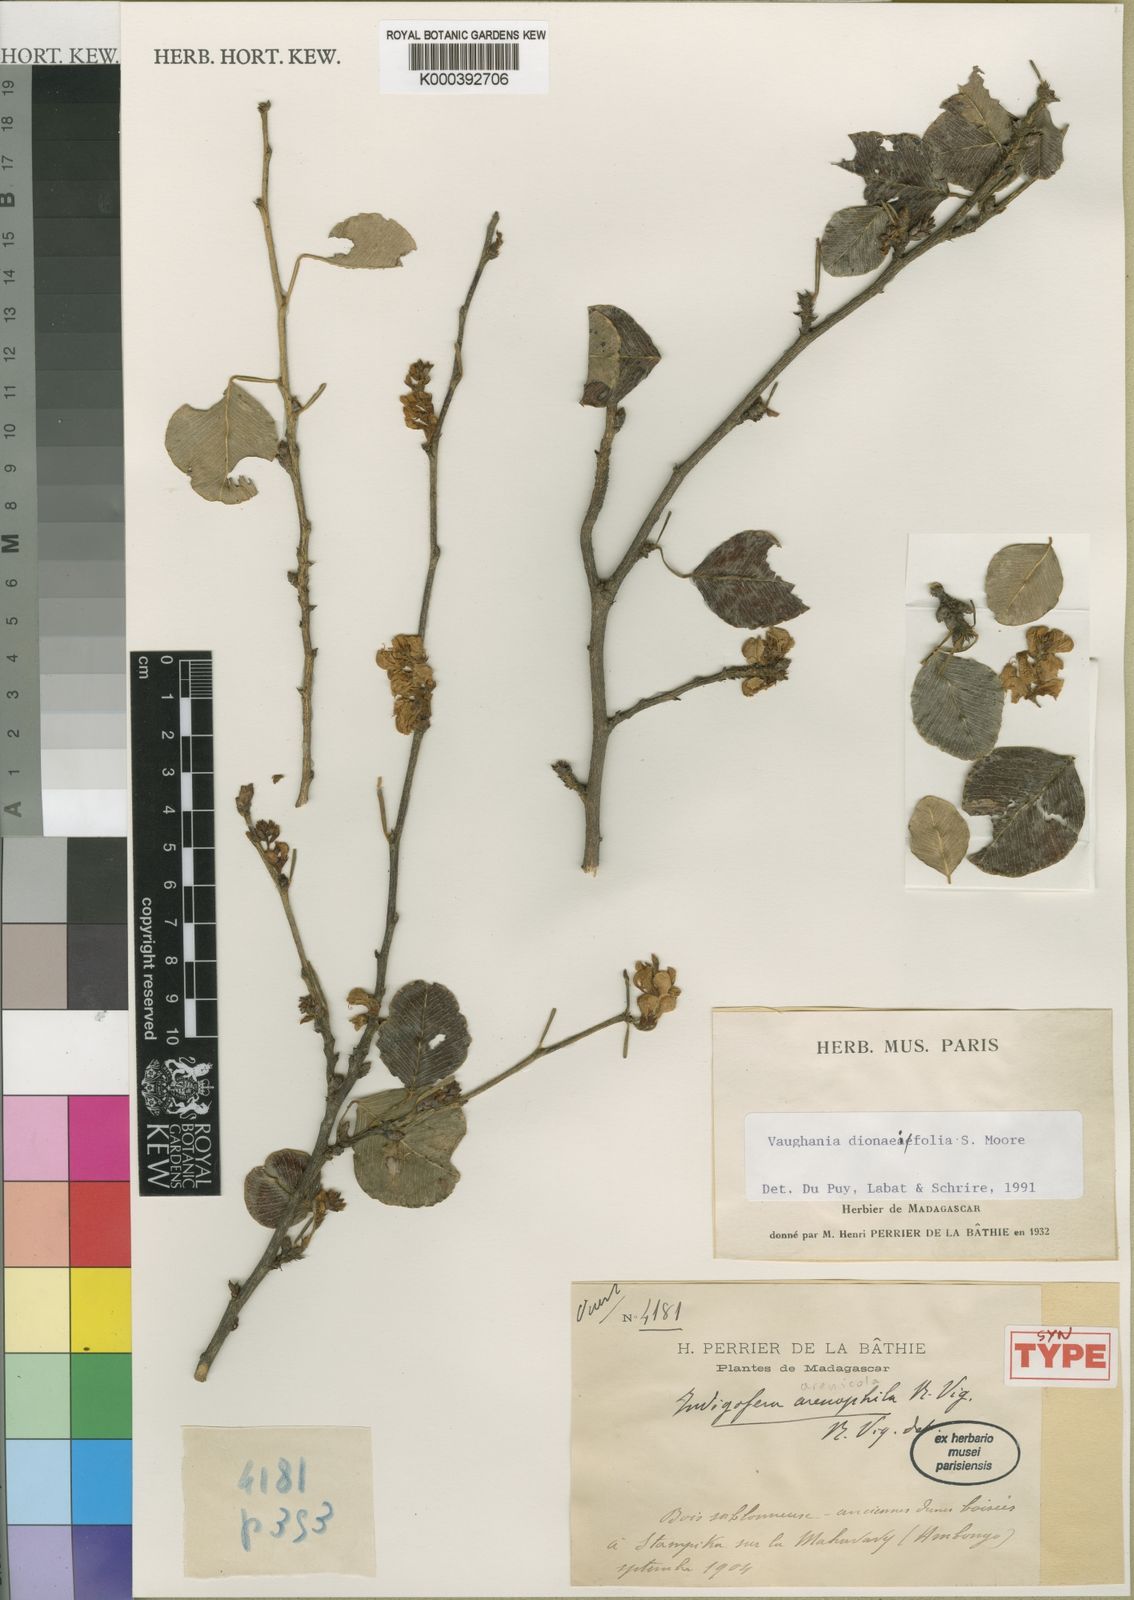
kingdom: Plantae
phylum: Tracheophyta
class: Magnoliopsida
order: Fabales
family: Fabaceae
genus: Indigofera
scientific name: Indigofera dionaeifolia
